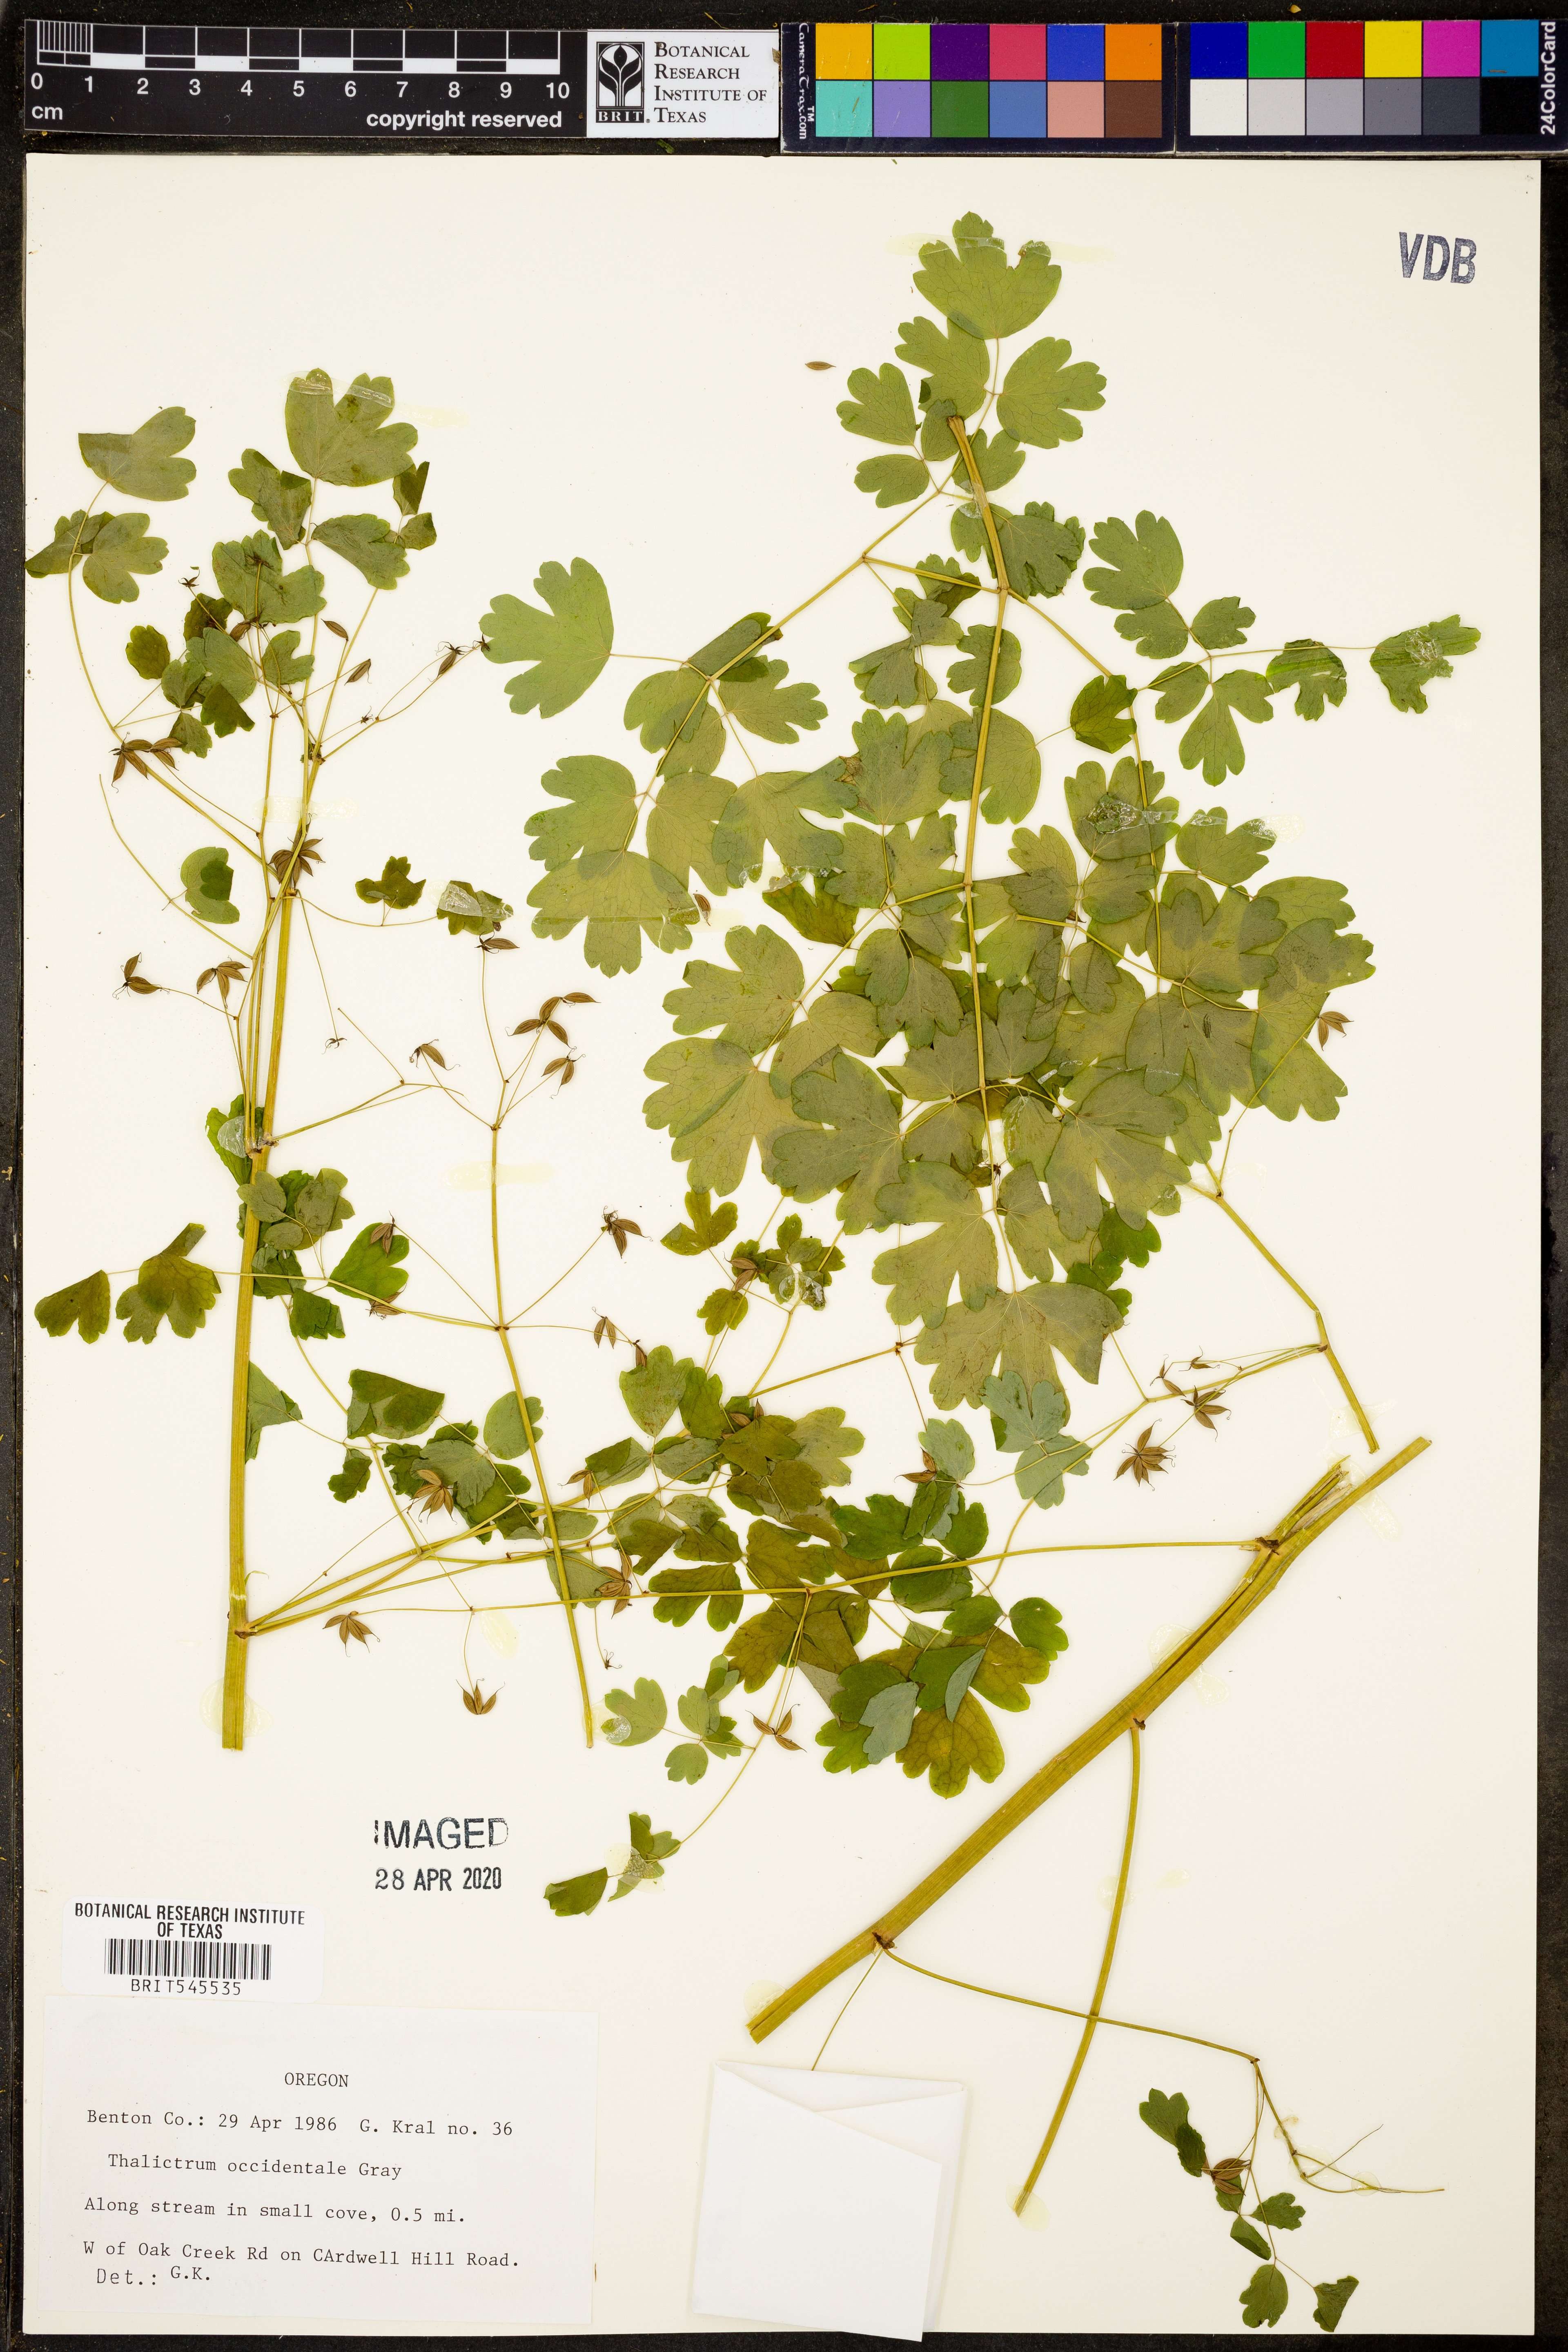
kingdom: Plantae
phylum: Tracheophyta
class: Magnoliopsida
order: Ranunculales
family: Ranunculaceae
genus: Thalictrum
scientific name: Thalictrum occidentale
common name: Western meadow-rue
